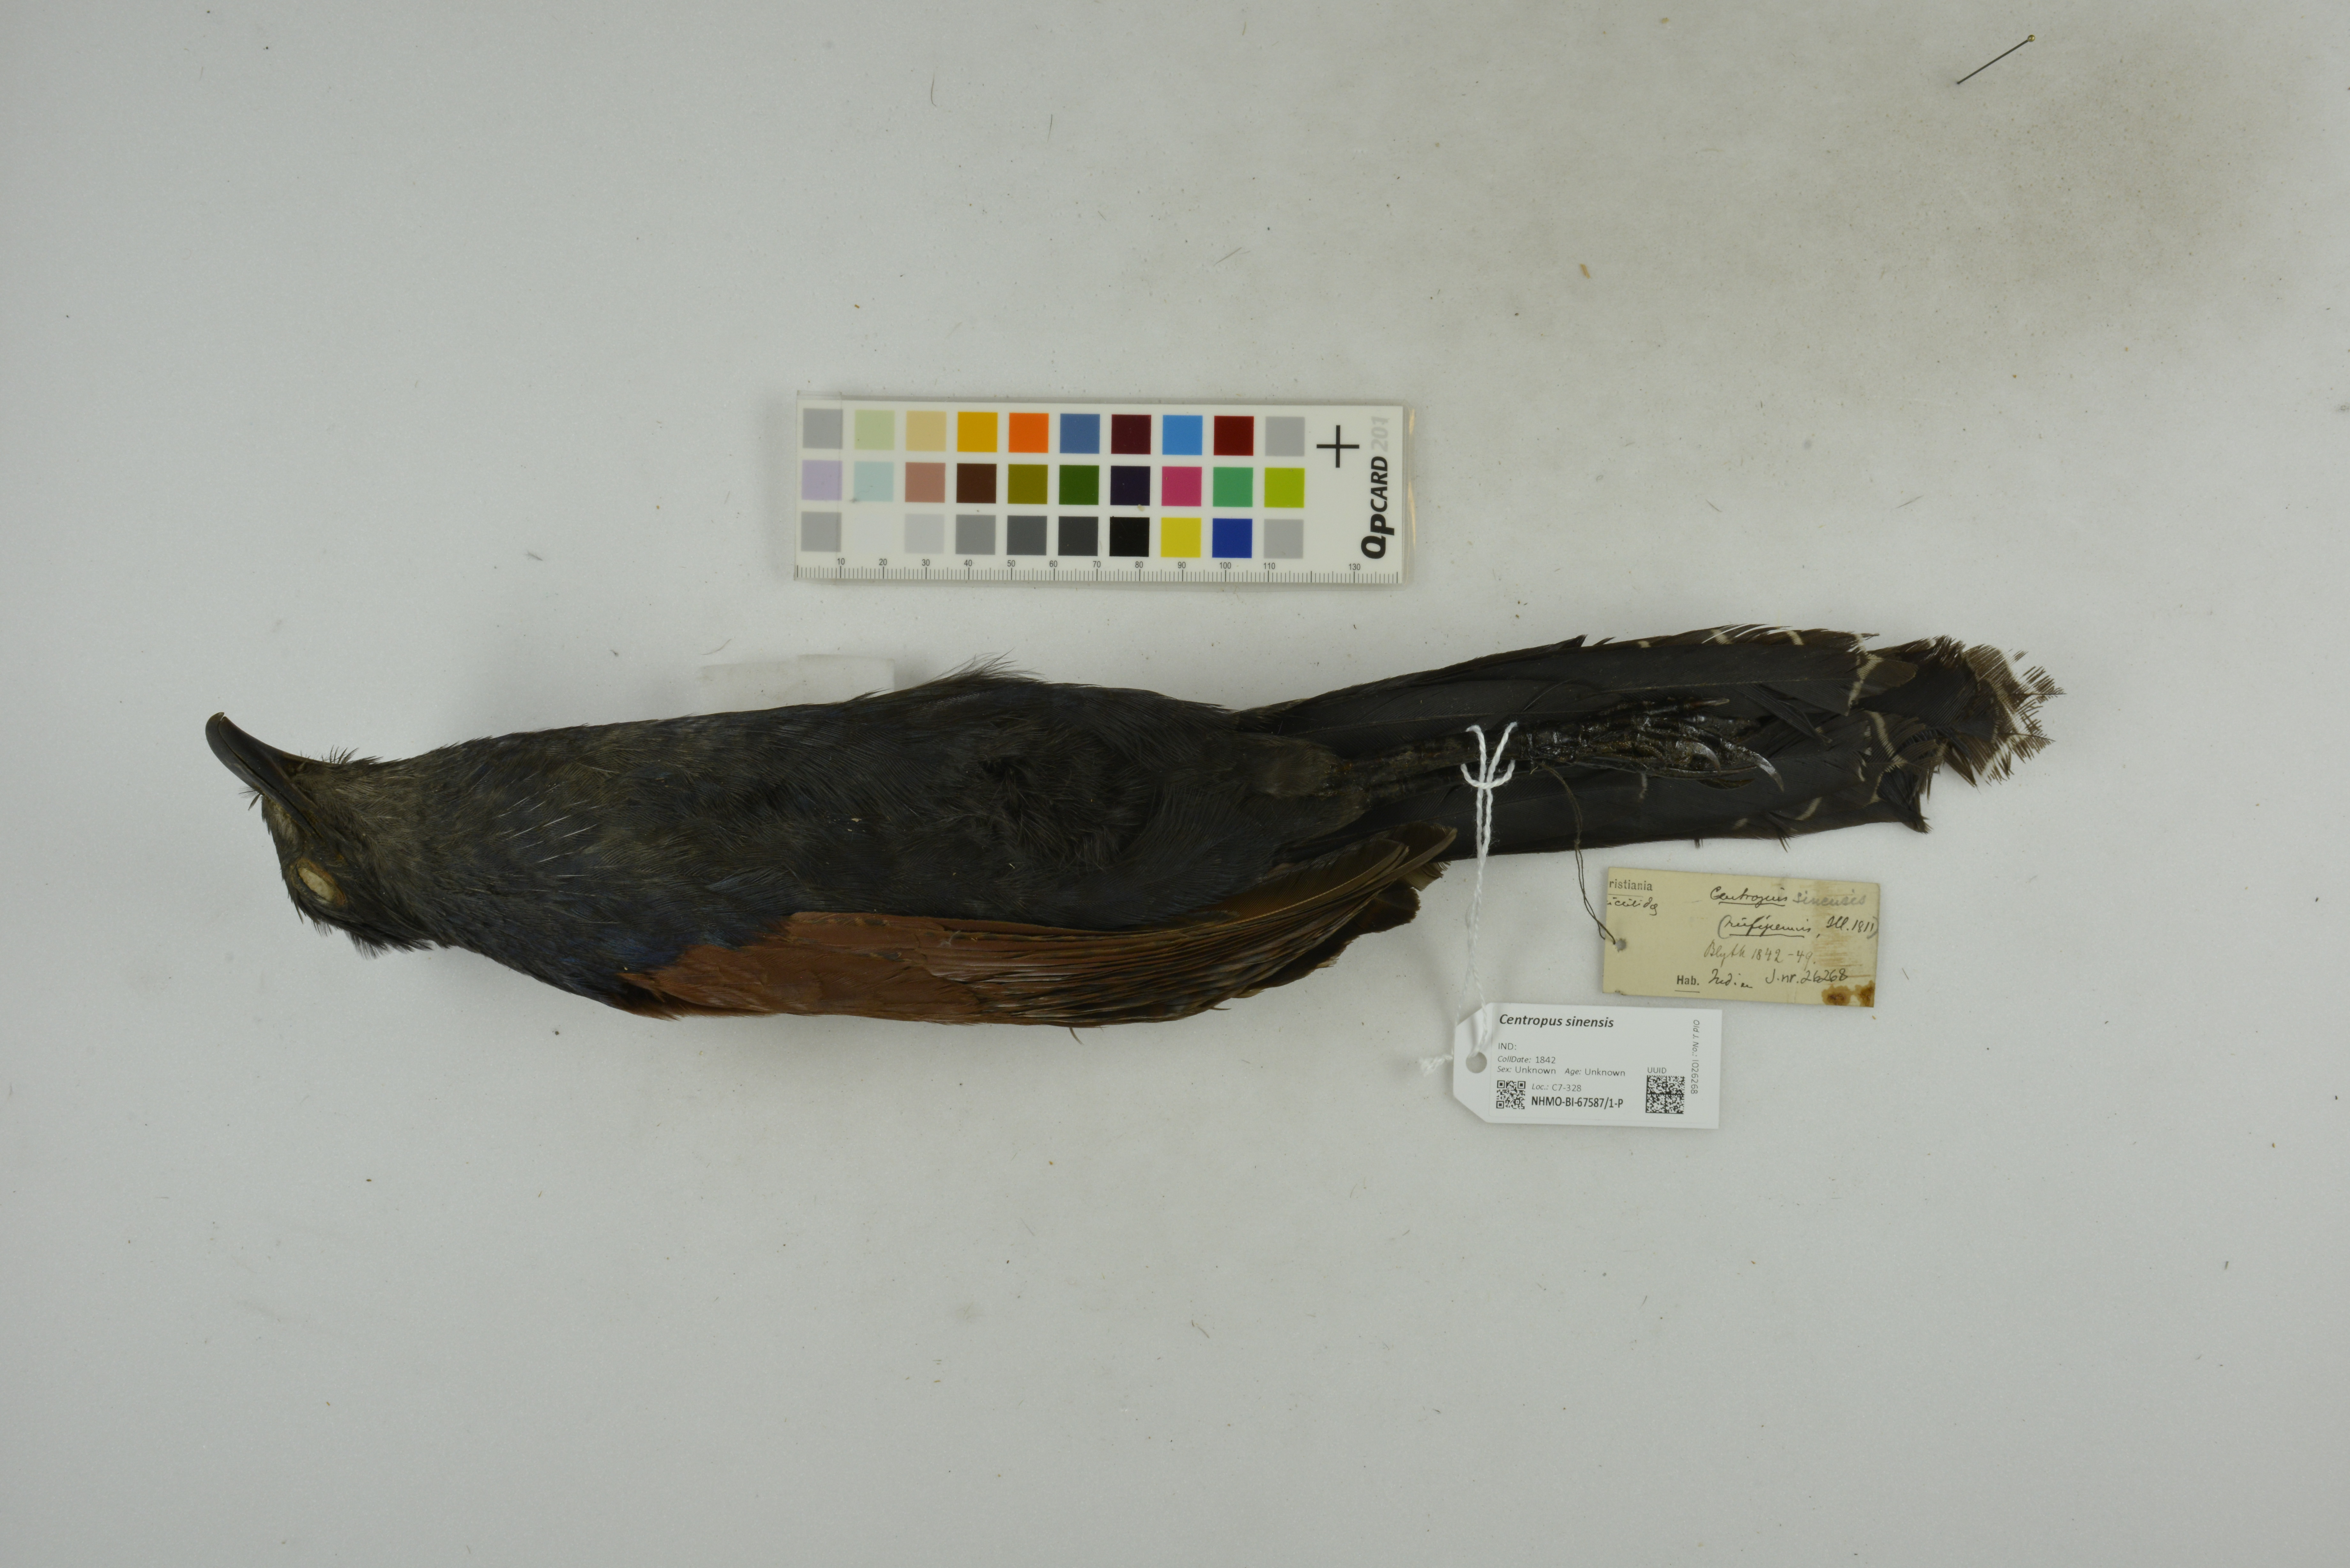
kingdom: Animalia
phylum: Chordata
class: Aves
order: Cuculiformes
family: Cuculidae
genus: Centropus
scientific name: Centropus sinensis
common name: Greater coucal
